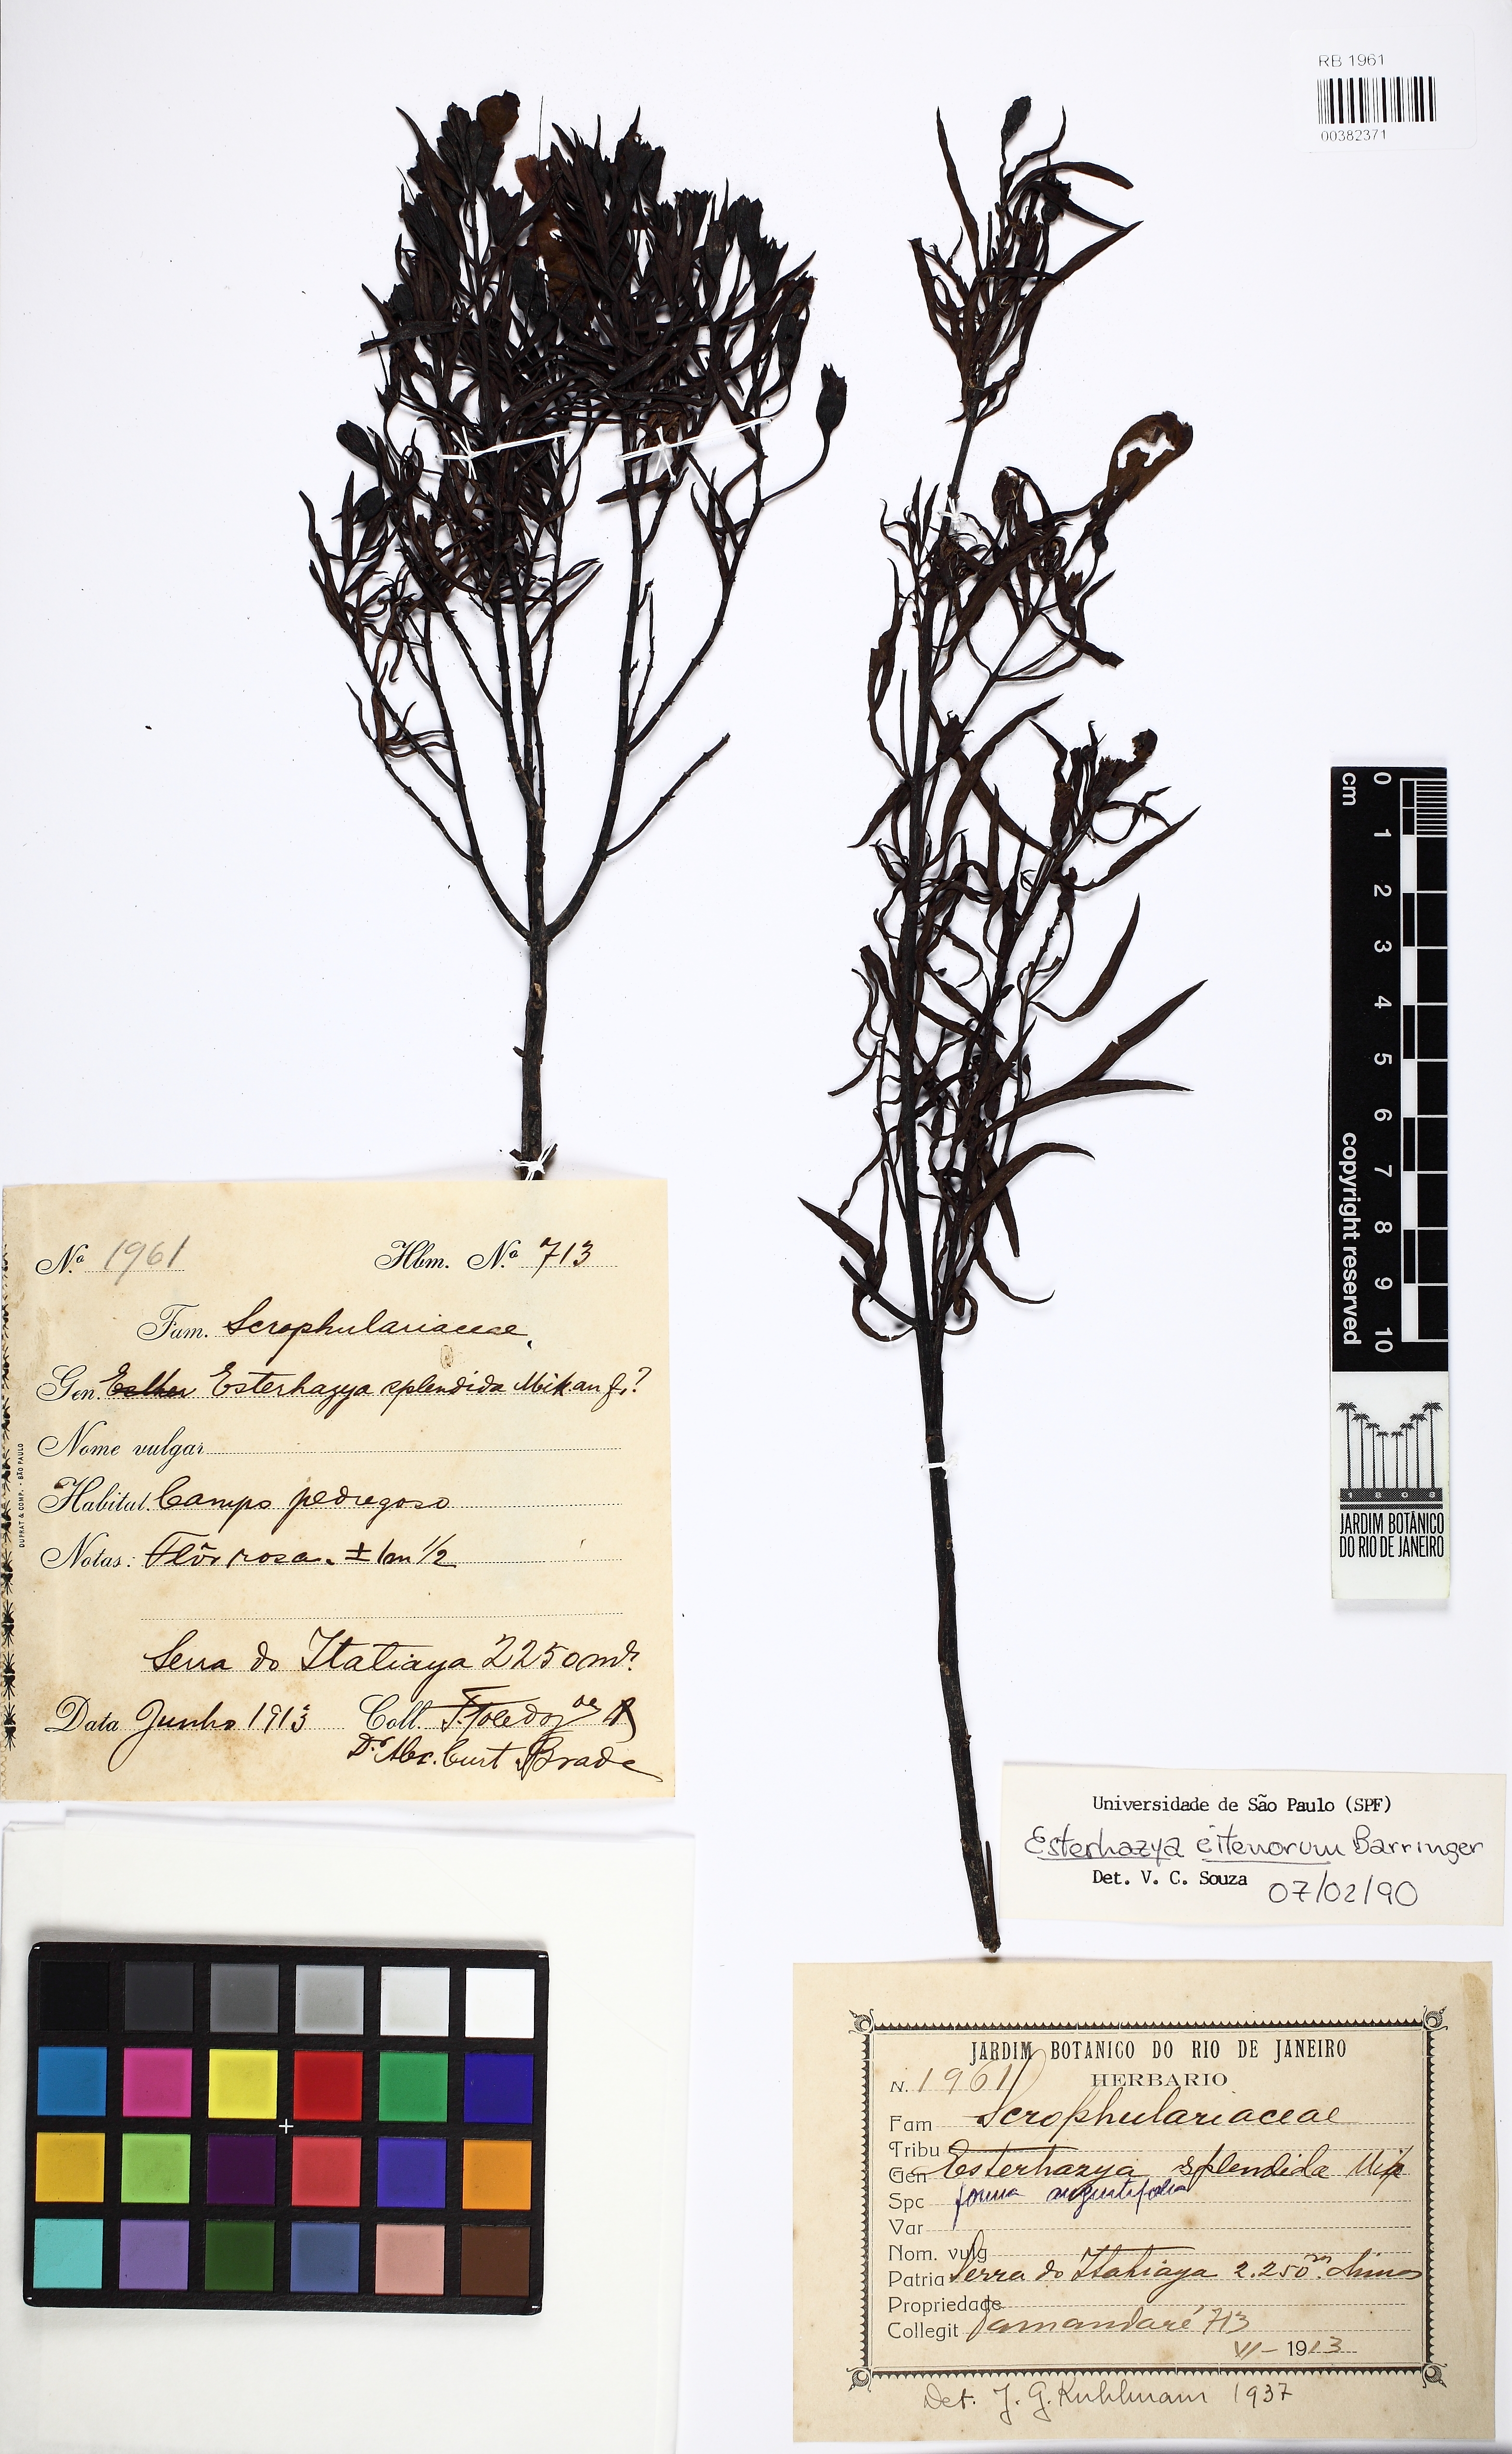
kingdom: Plantae
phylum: Tracheophyta
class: Magnoliopsida
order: Lamiales
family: Orobanchaceae
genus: Esterhazya
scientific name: Esterhazya eitenorum
